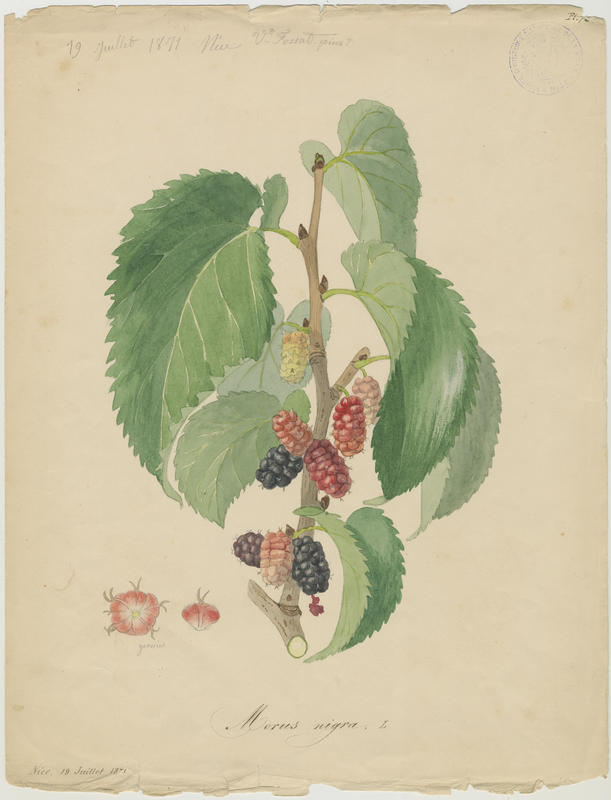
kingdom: Plantae
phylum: Tracheophyta
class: Magnoliopsida
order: Rosales
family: Moraceae
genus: Morus
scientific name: Morus nigra
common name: Black mulberry
